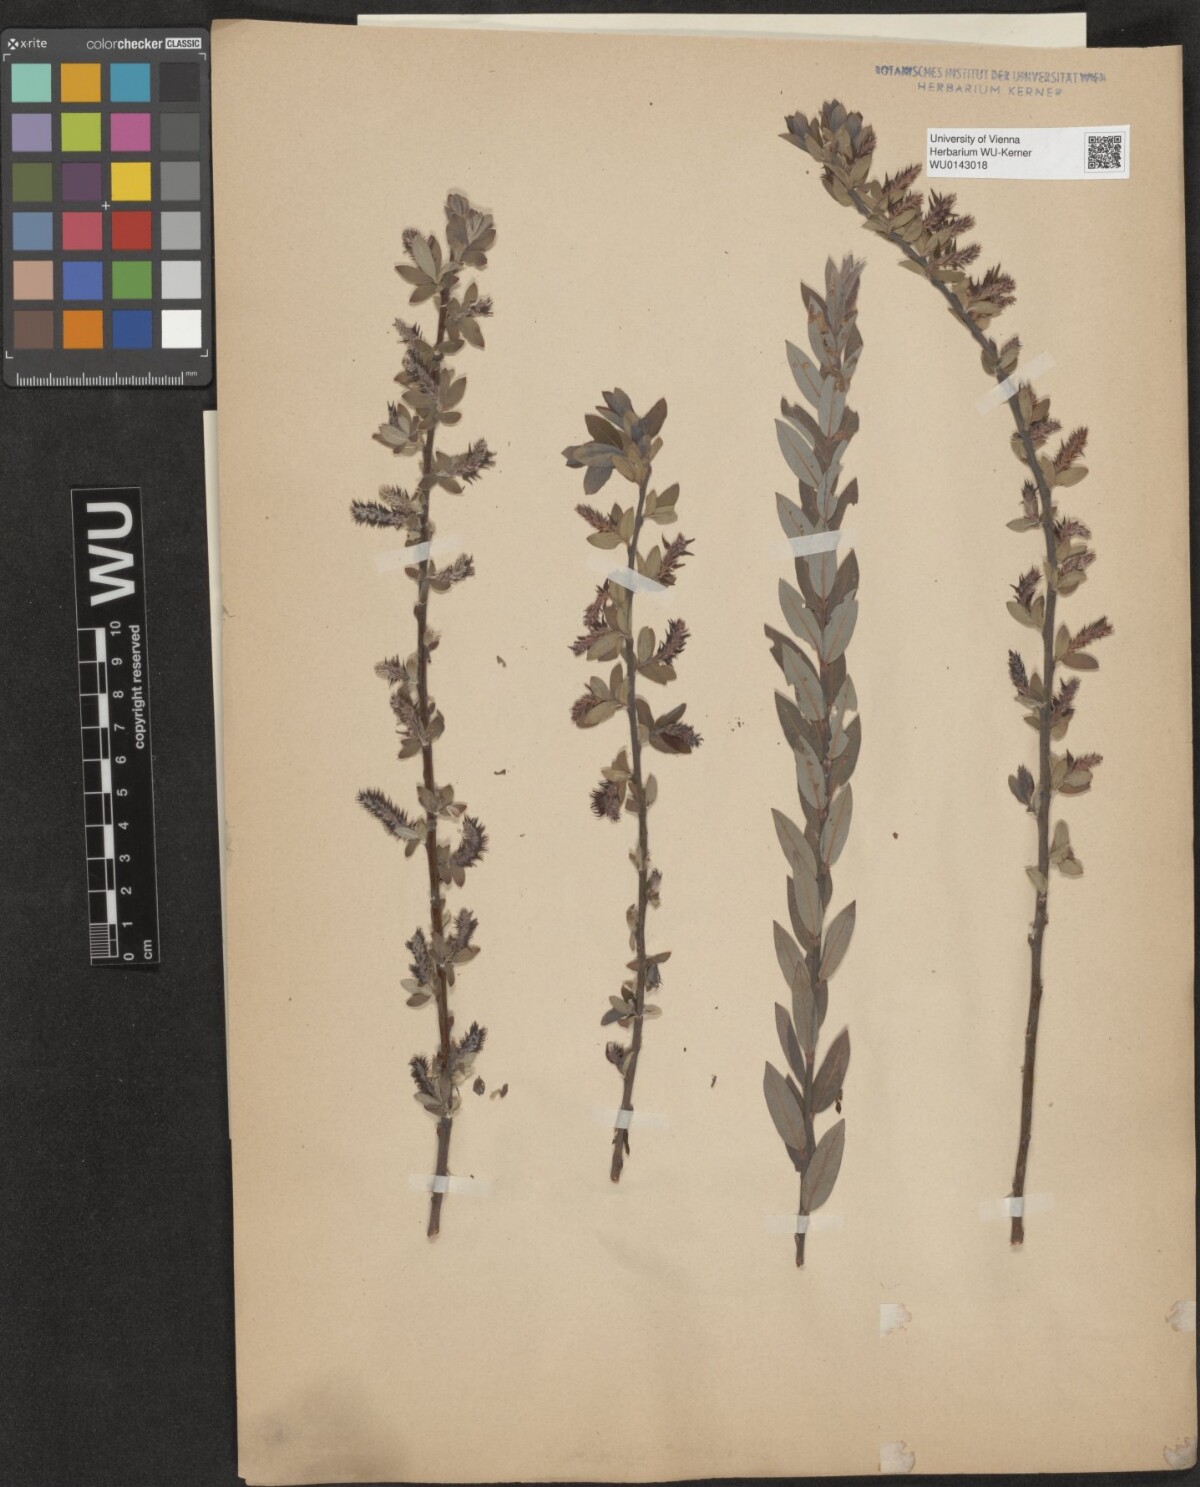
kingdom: Plantae
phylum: Tracheophyta
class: Magnoliopsida
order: Malpighiales
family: Salicaceae
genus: Salix
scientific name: Salix myrtilloides
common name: Myrtle-leaved willow
